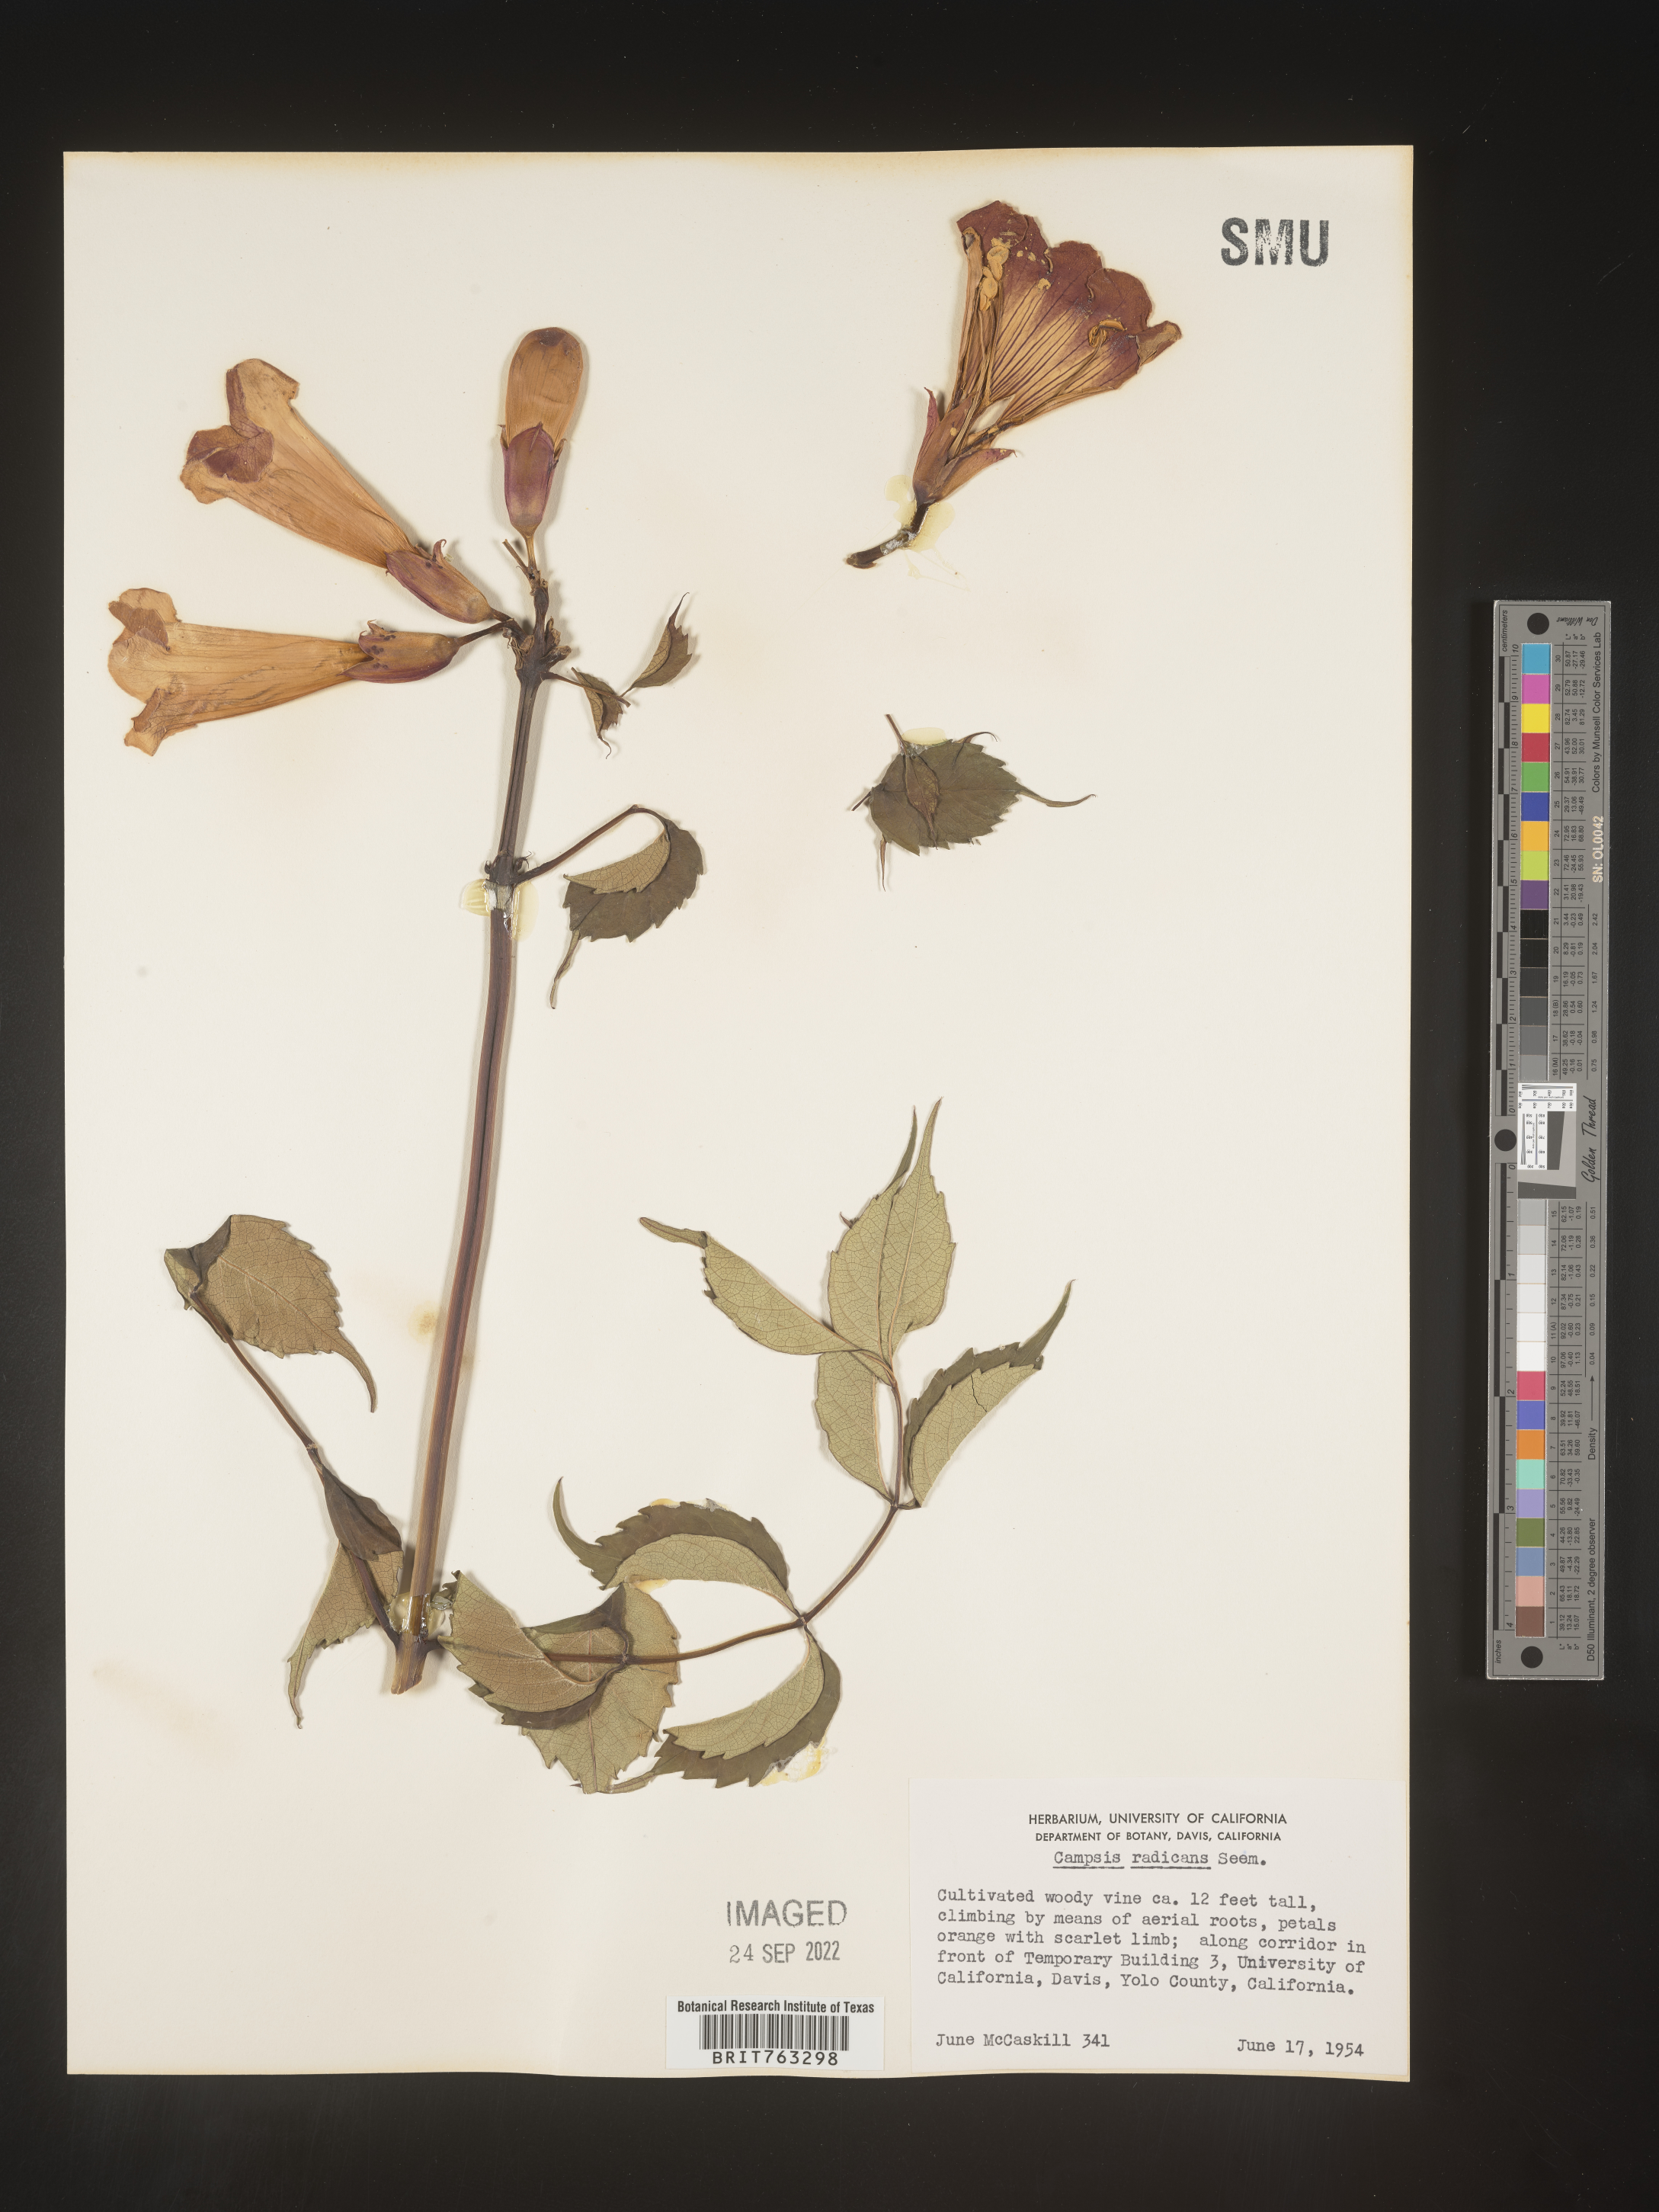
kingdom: Plantae
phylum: Tracheophyta
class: Magnoliopsida
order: Lamiales
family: Bignoniaceae
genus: Campsis
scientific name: Campsis
